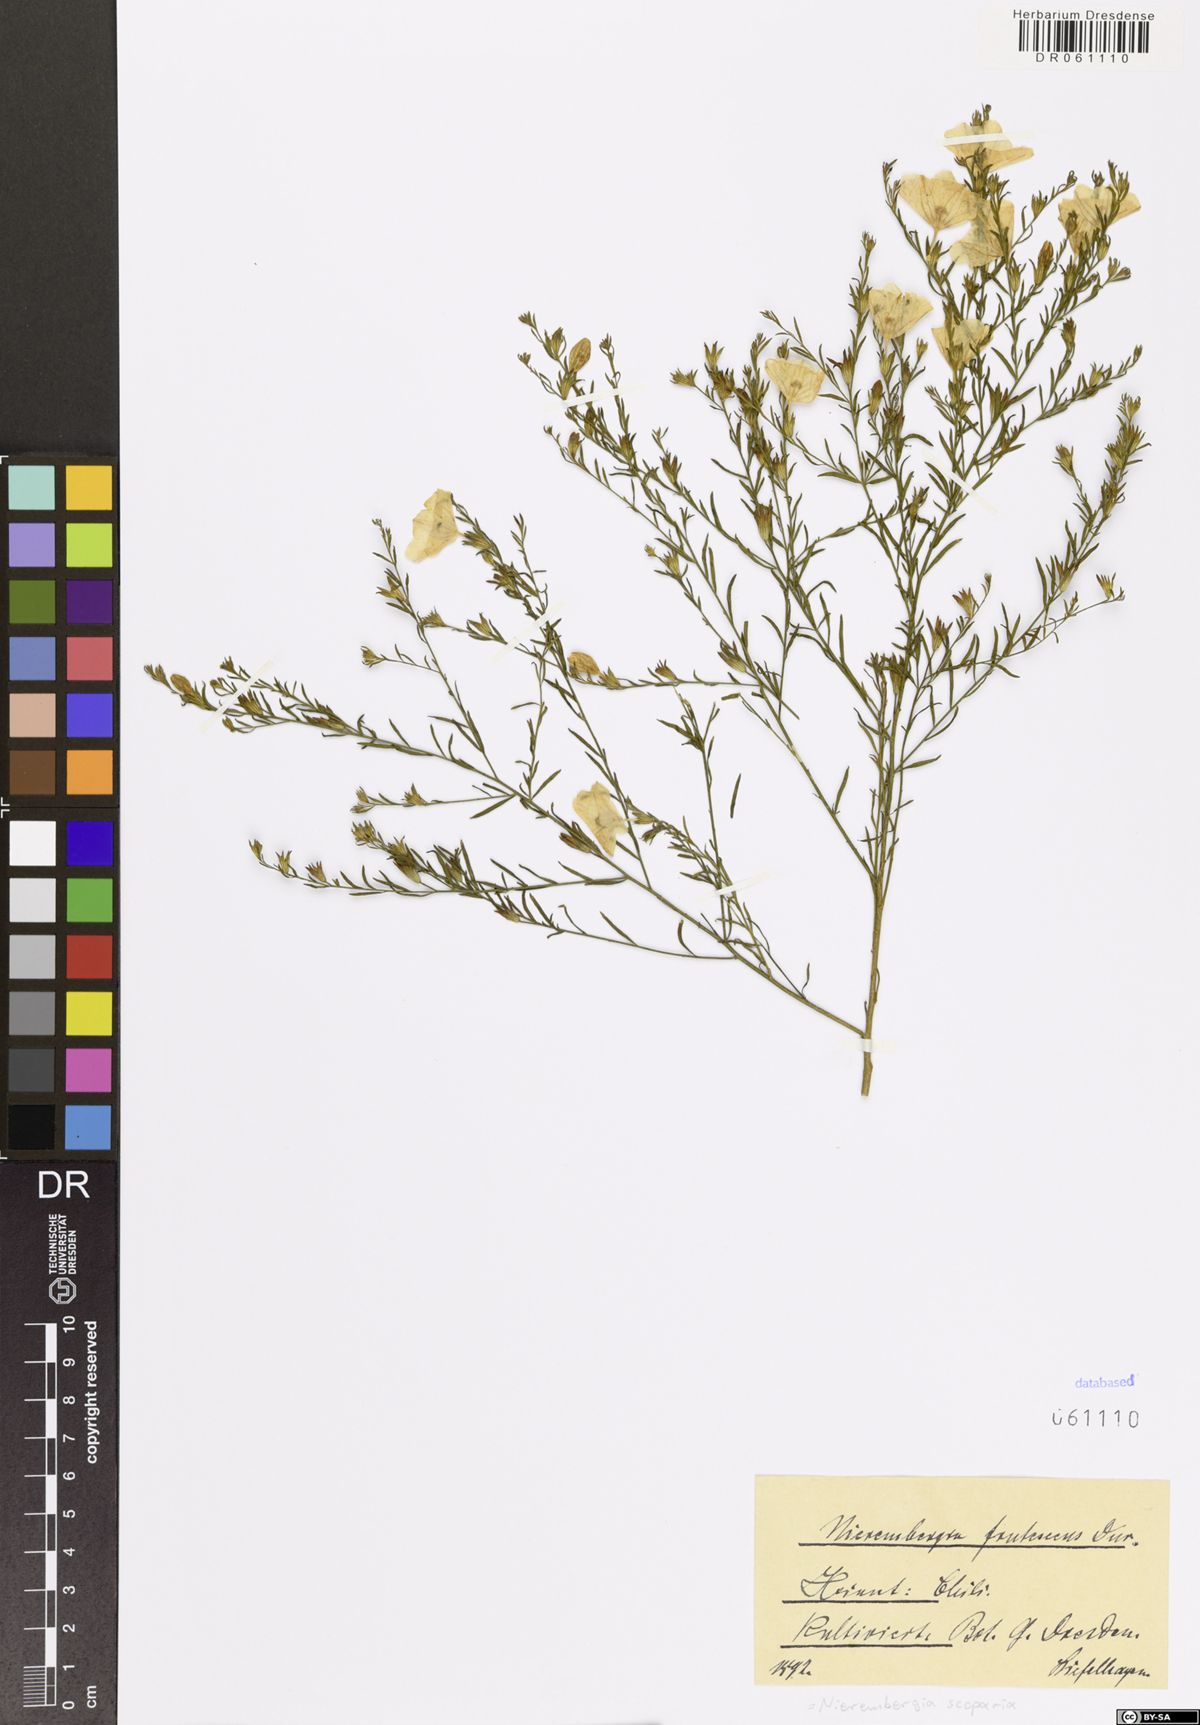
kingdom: Plantae
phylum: Tracheophyta
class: Magnoliopsida
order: Solanales
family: Solanaceae
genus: Nierembergia
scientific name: Nierembergia scoparia
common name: Broom cupflower
